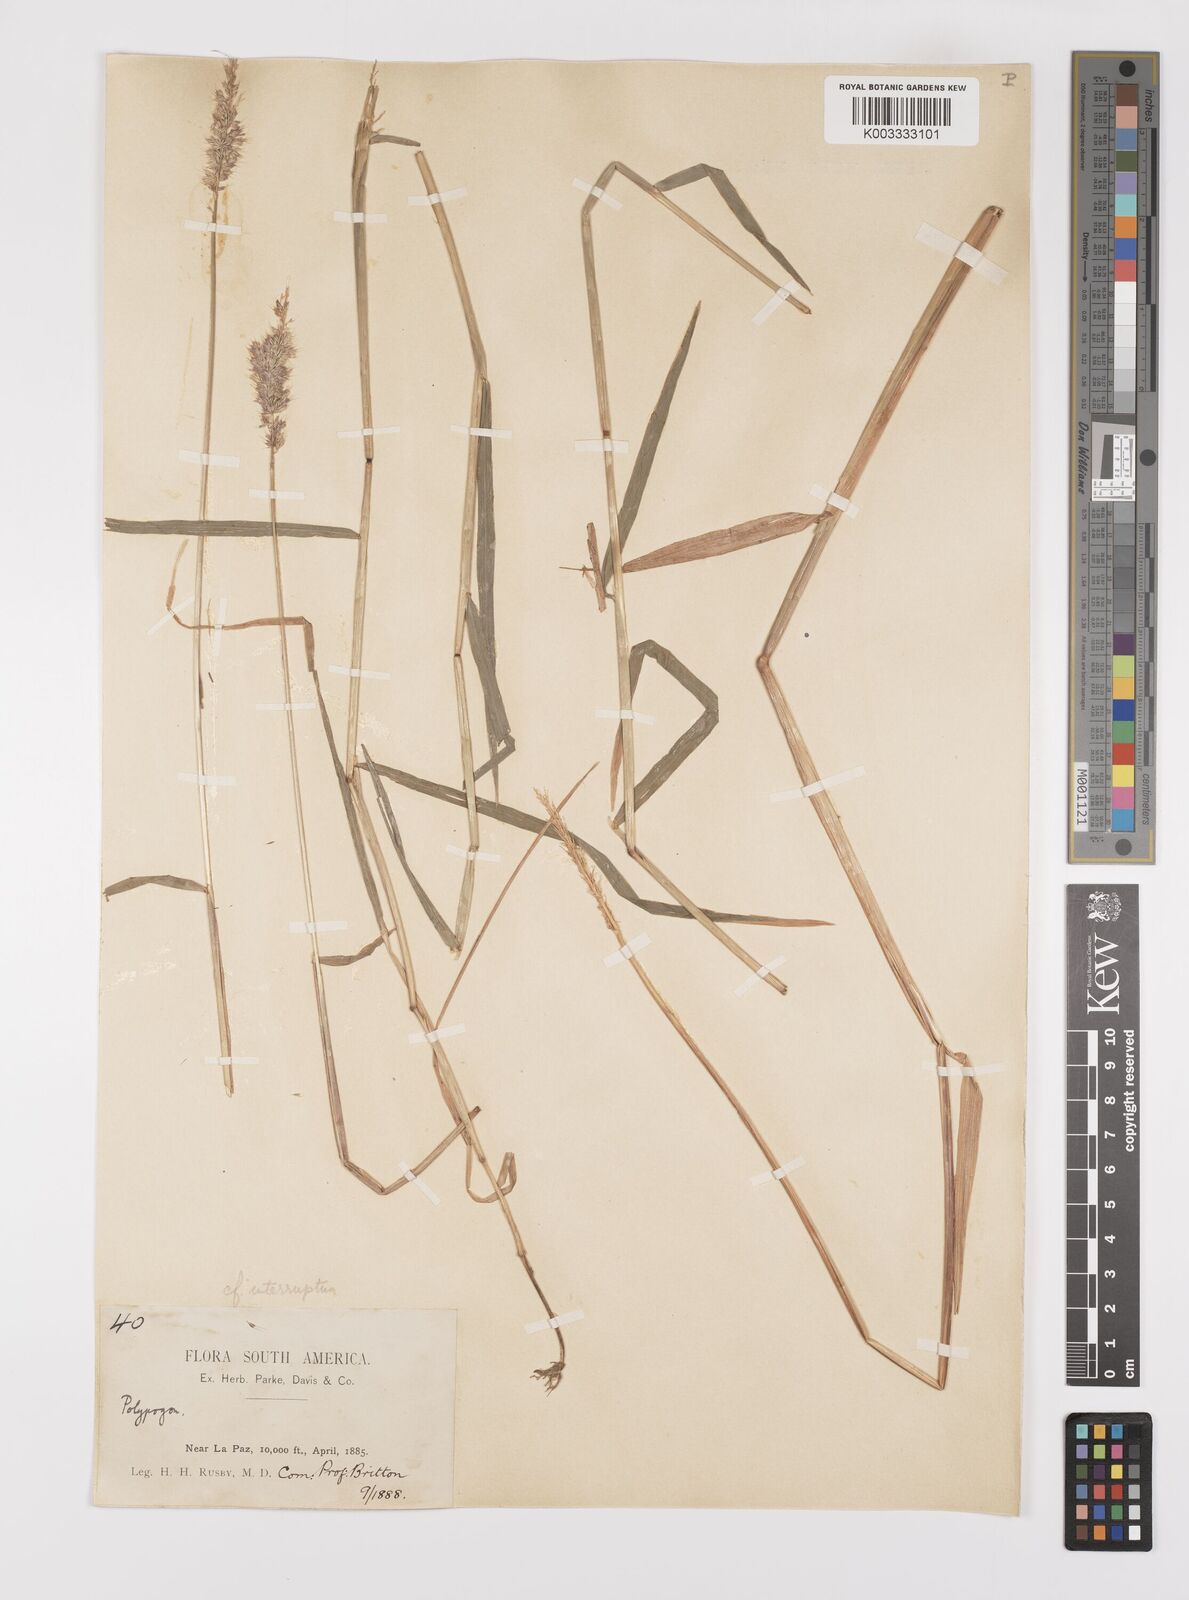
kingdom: Plantae
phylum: Tracheophyta
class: Liliopsida
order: Poales
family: Poaceae
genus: Polypogon
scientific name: Polypogon interruptus
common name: Ditch polypogon
